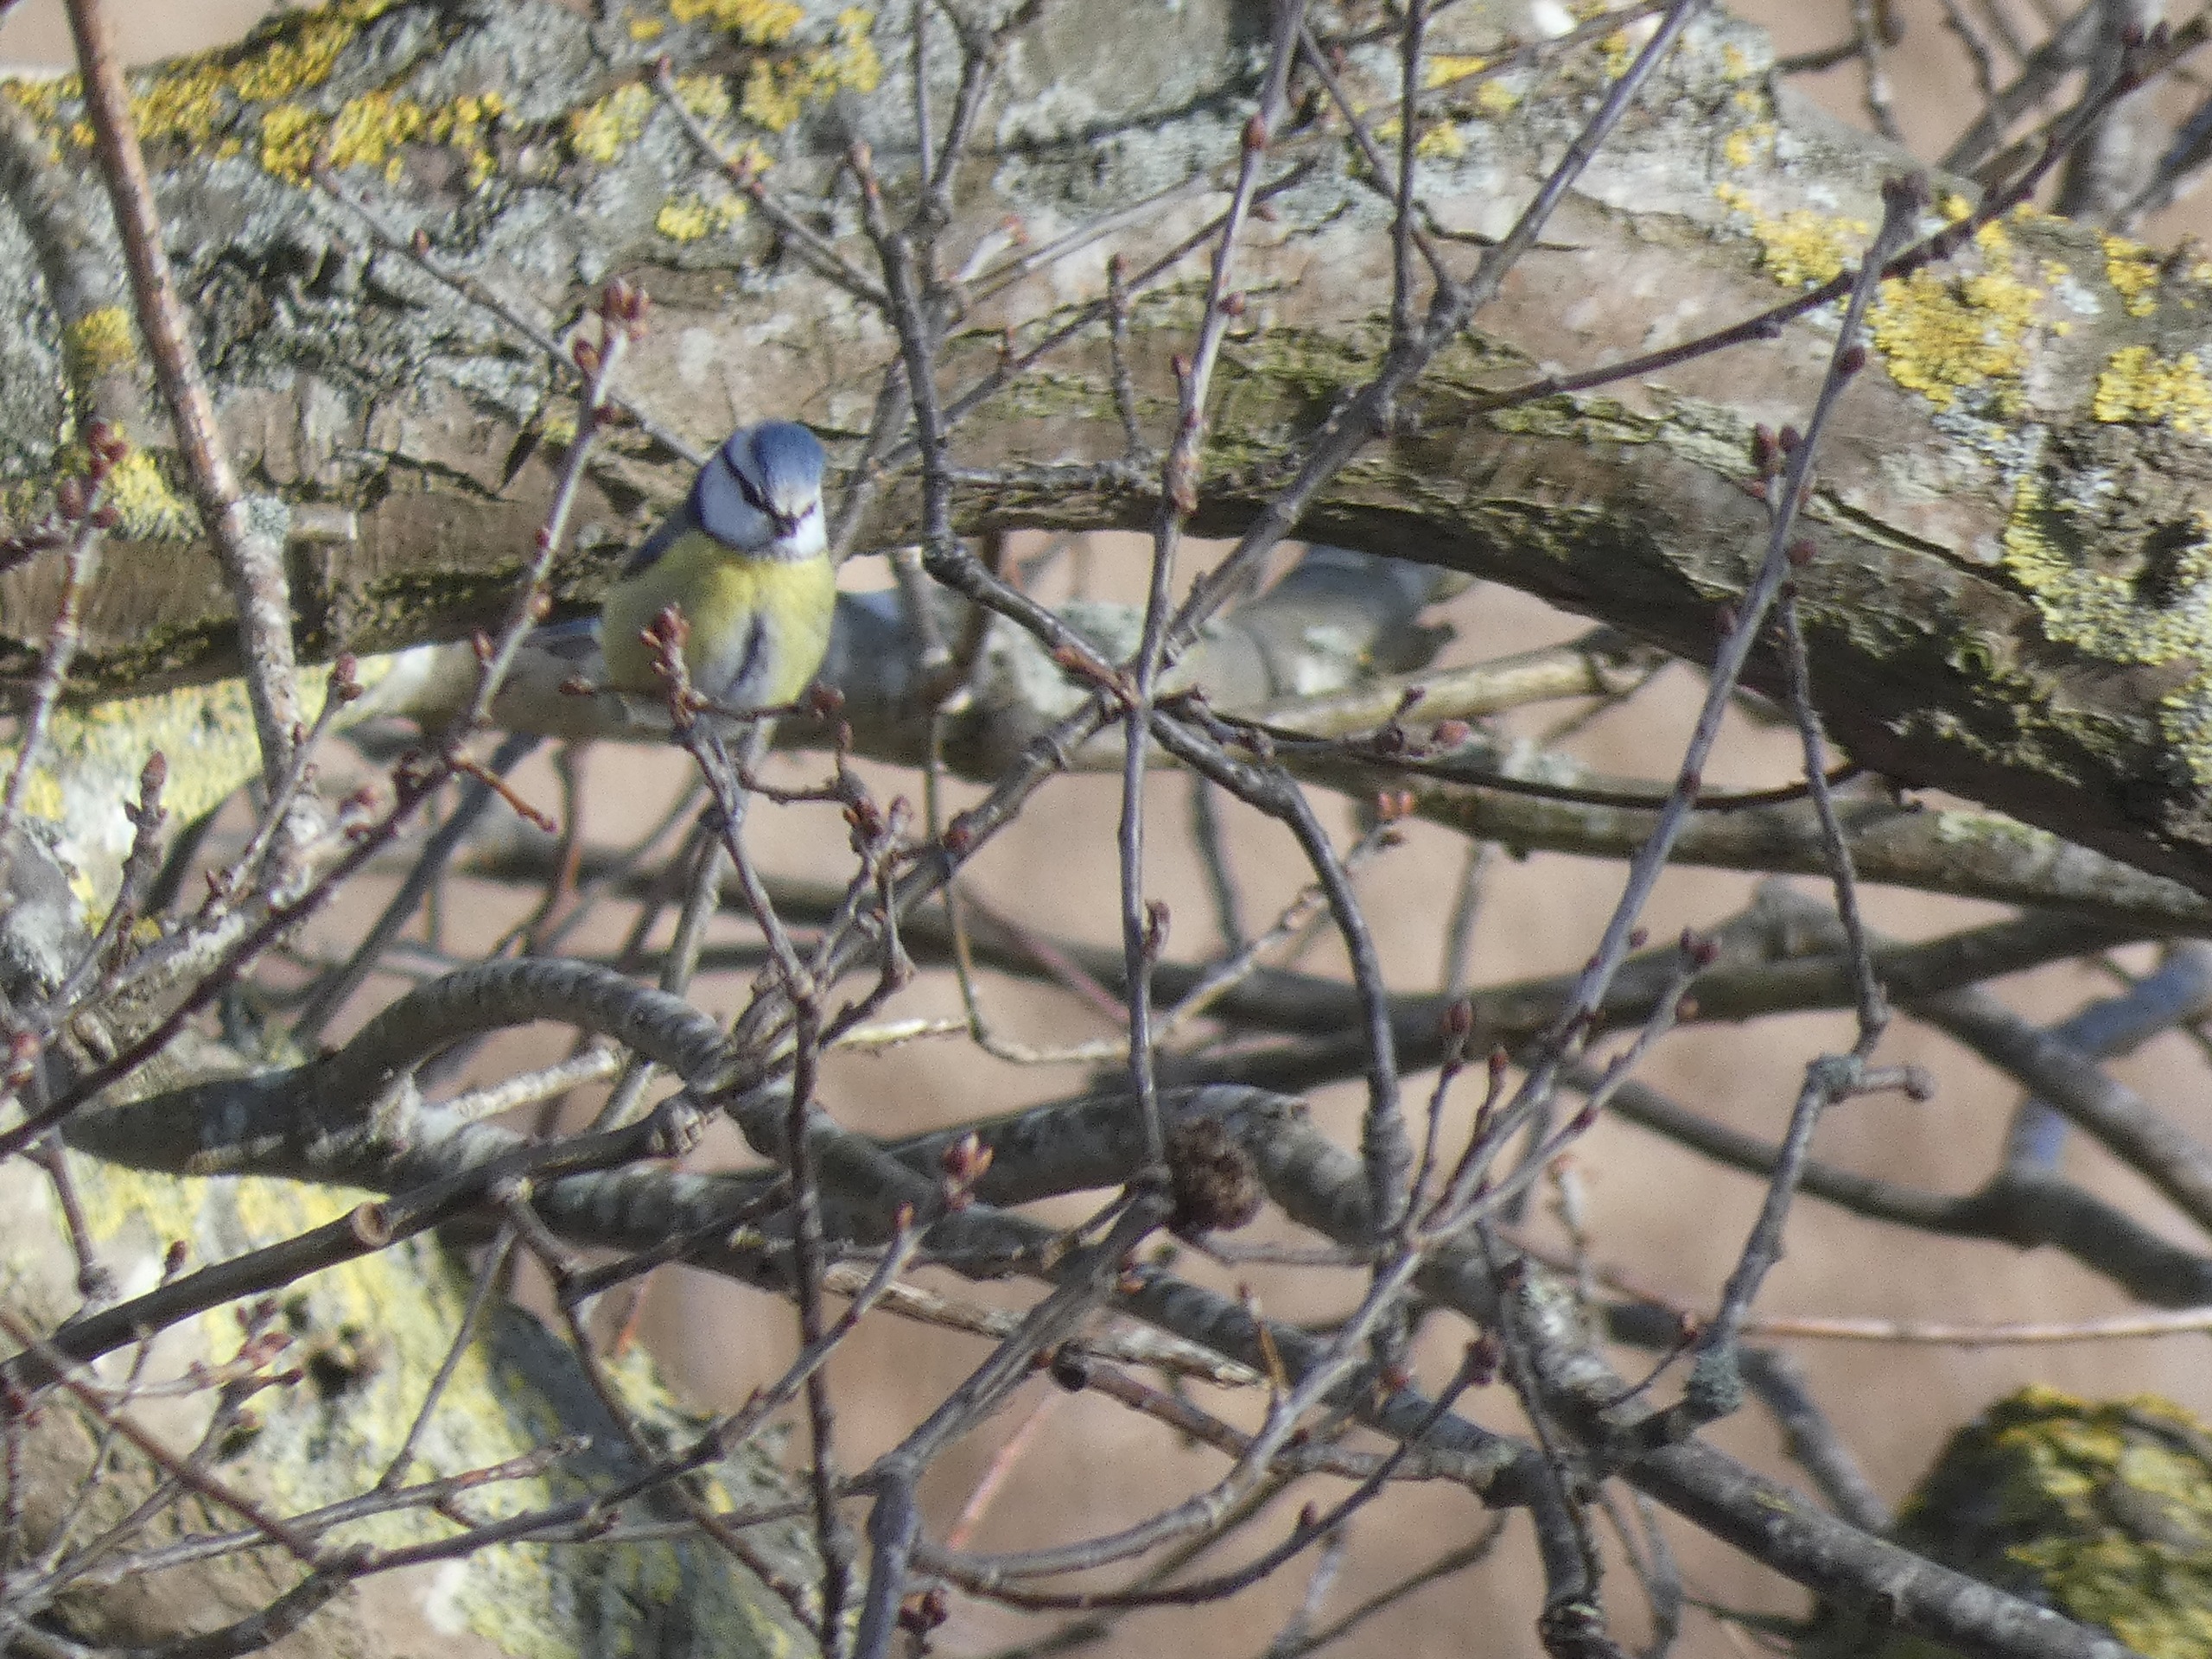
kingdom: Animalia
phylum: Chordata
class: Aves
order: Passeriformes
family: Paridae
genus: Cyanistes
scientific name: Cyanistes caeruleus
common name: Blåmejse
